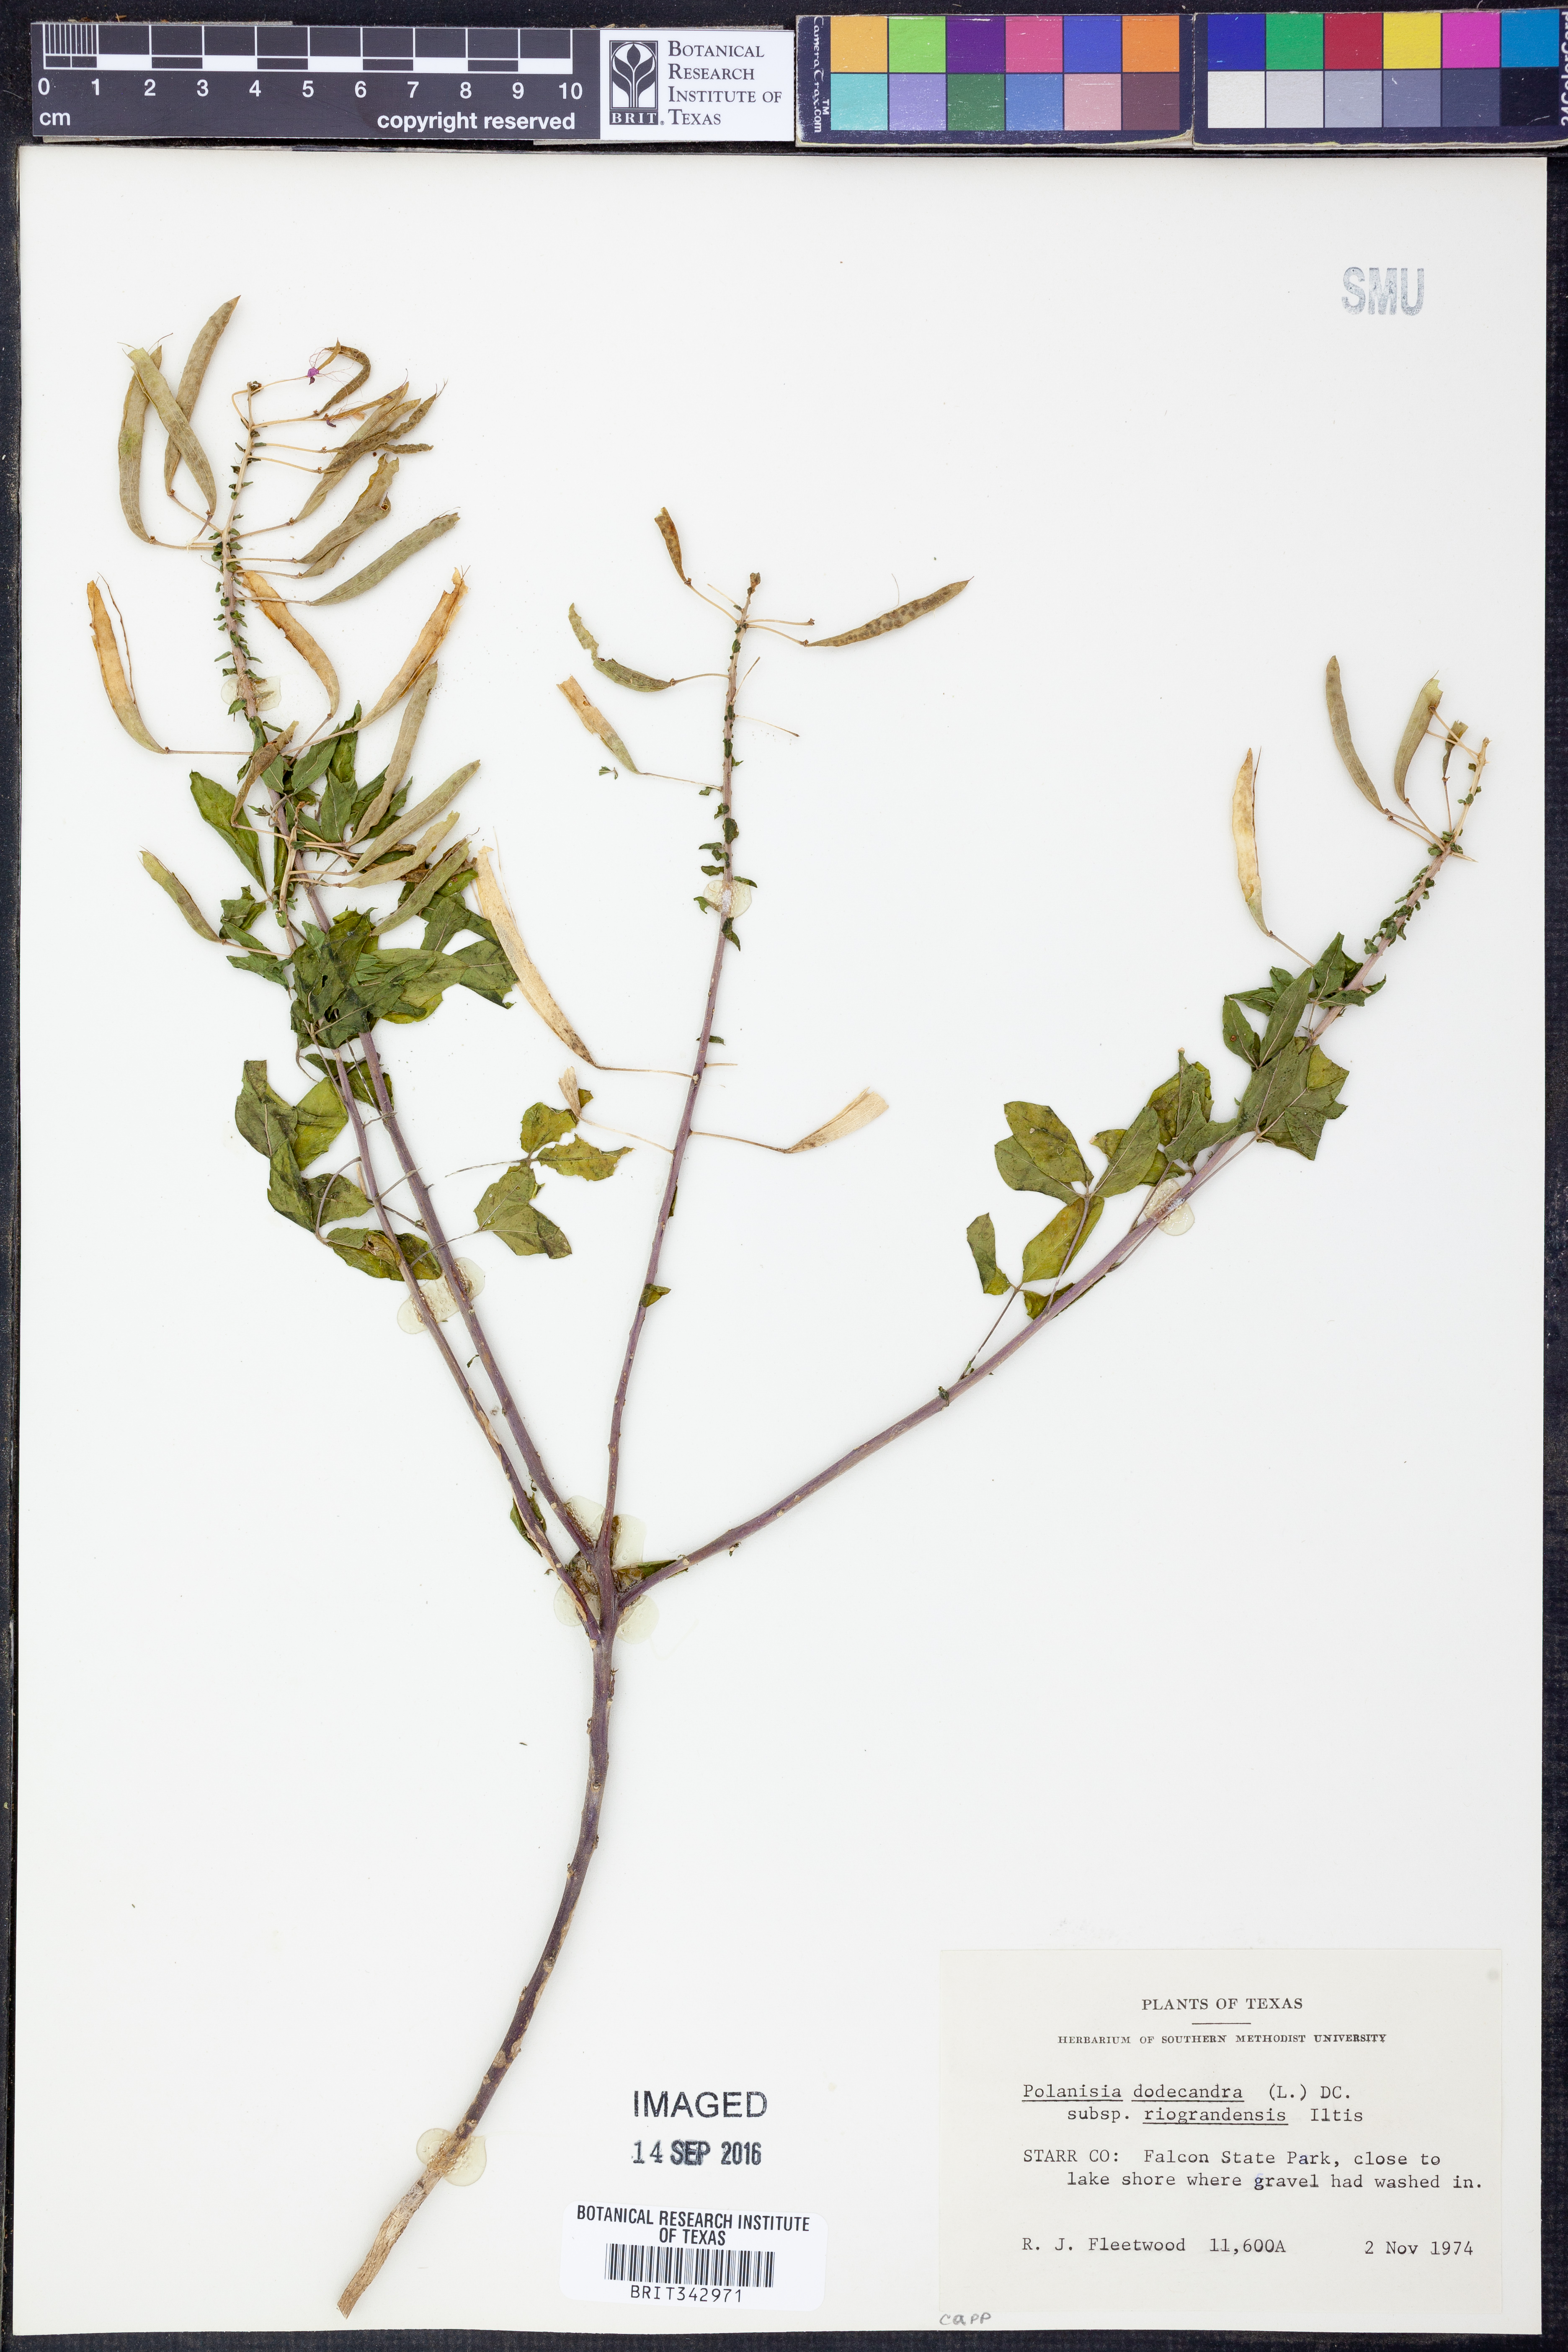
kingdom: Plantae
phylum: Tracheophyta
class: Magnoliopsida
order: Brassicales
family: Cleomaceae
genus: Polanisia
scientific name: Polanisia dodecandra
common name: Clammyweed
